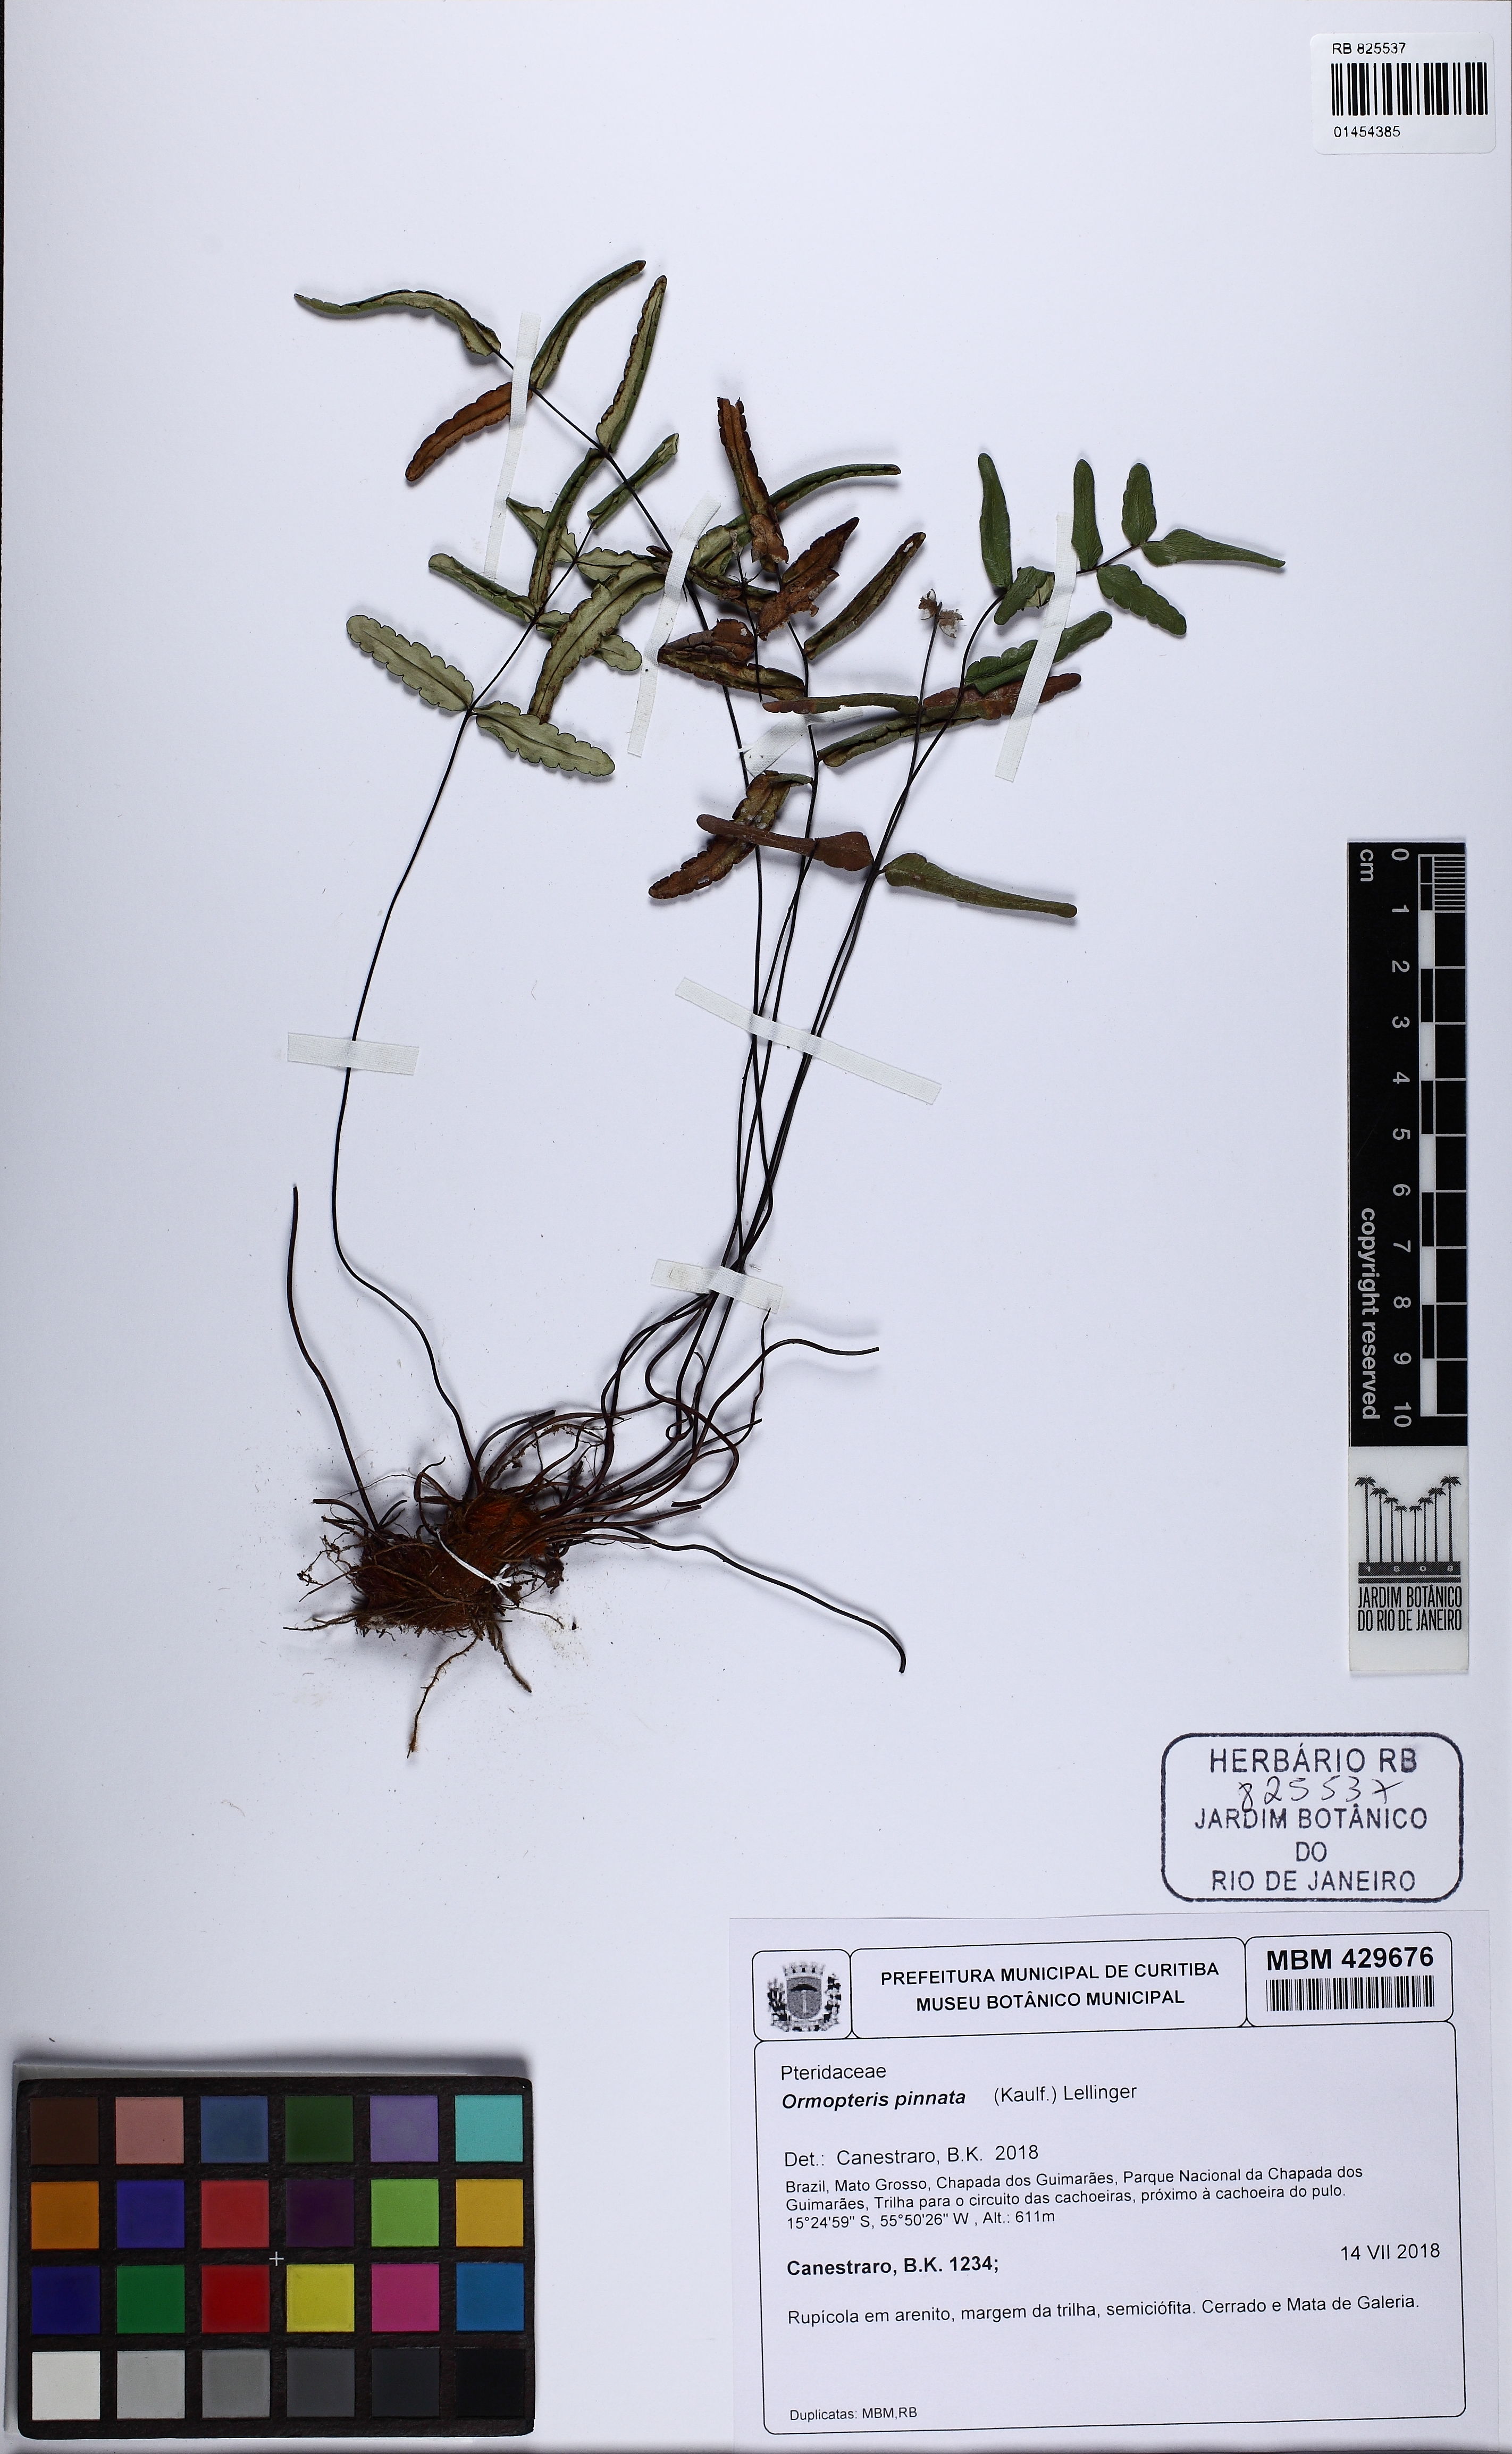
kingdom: Plantae
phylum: Tracheophyta
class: Polypodiopsida
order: Polypodiales
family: Pteridaceae
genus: Ormopteris
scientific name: Ormopteris pinnata
